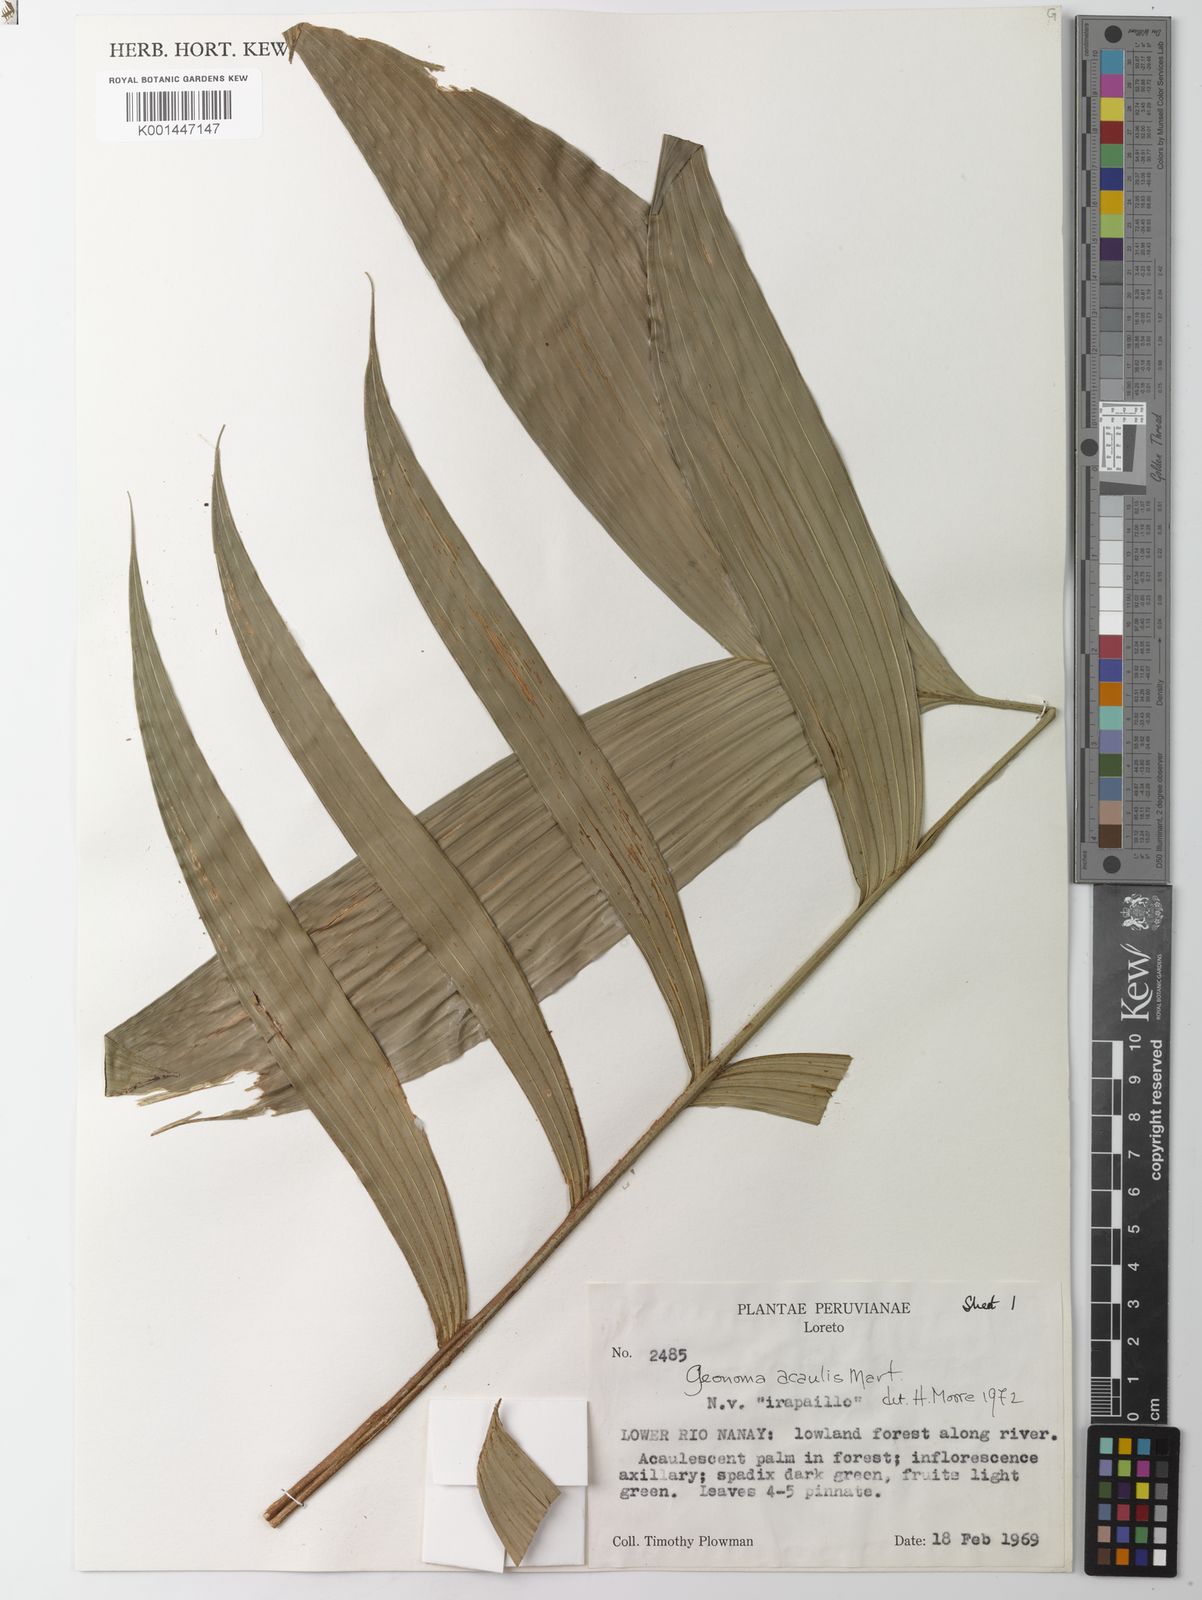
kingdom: Plantae
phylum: Tracheophyta
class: Liliopsida
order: Arecales
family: Arecaceae
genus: Geonoma
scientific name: Geonoma macrostachys
